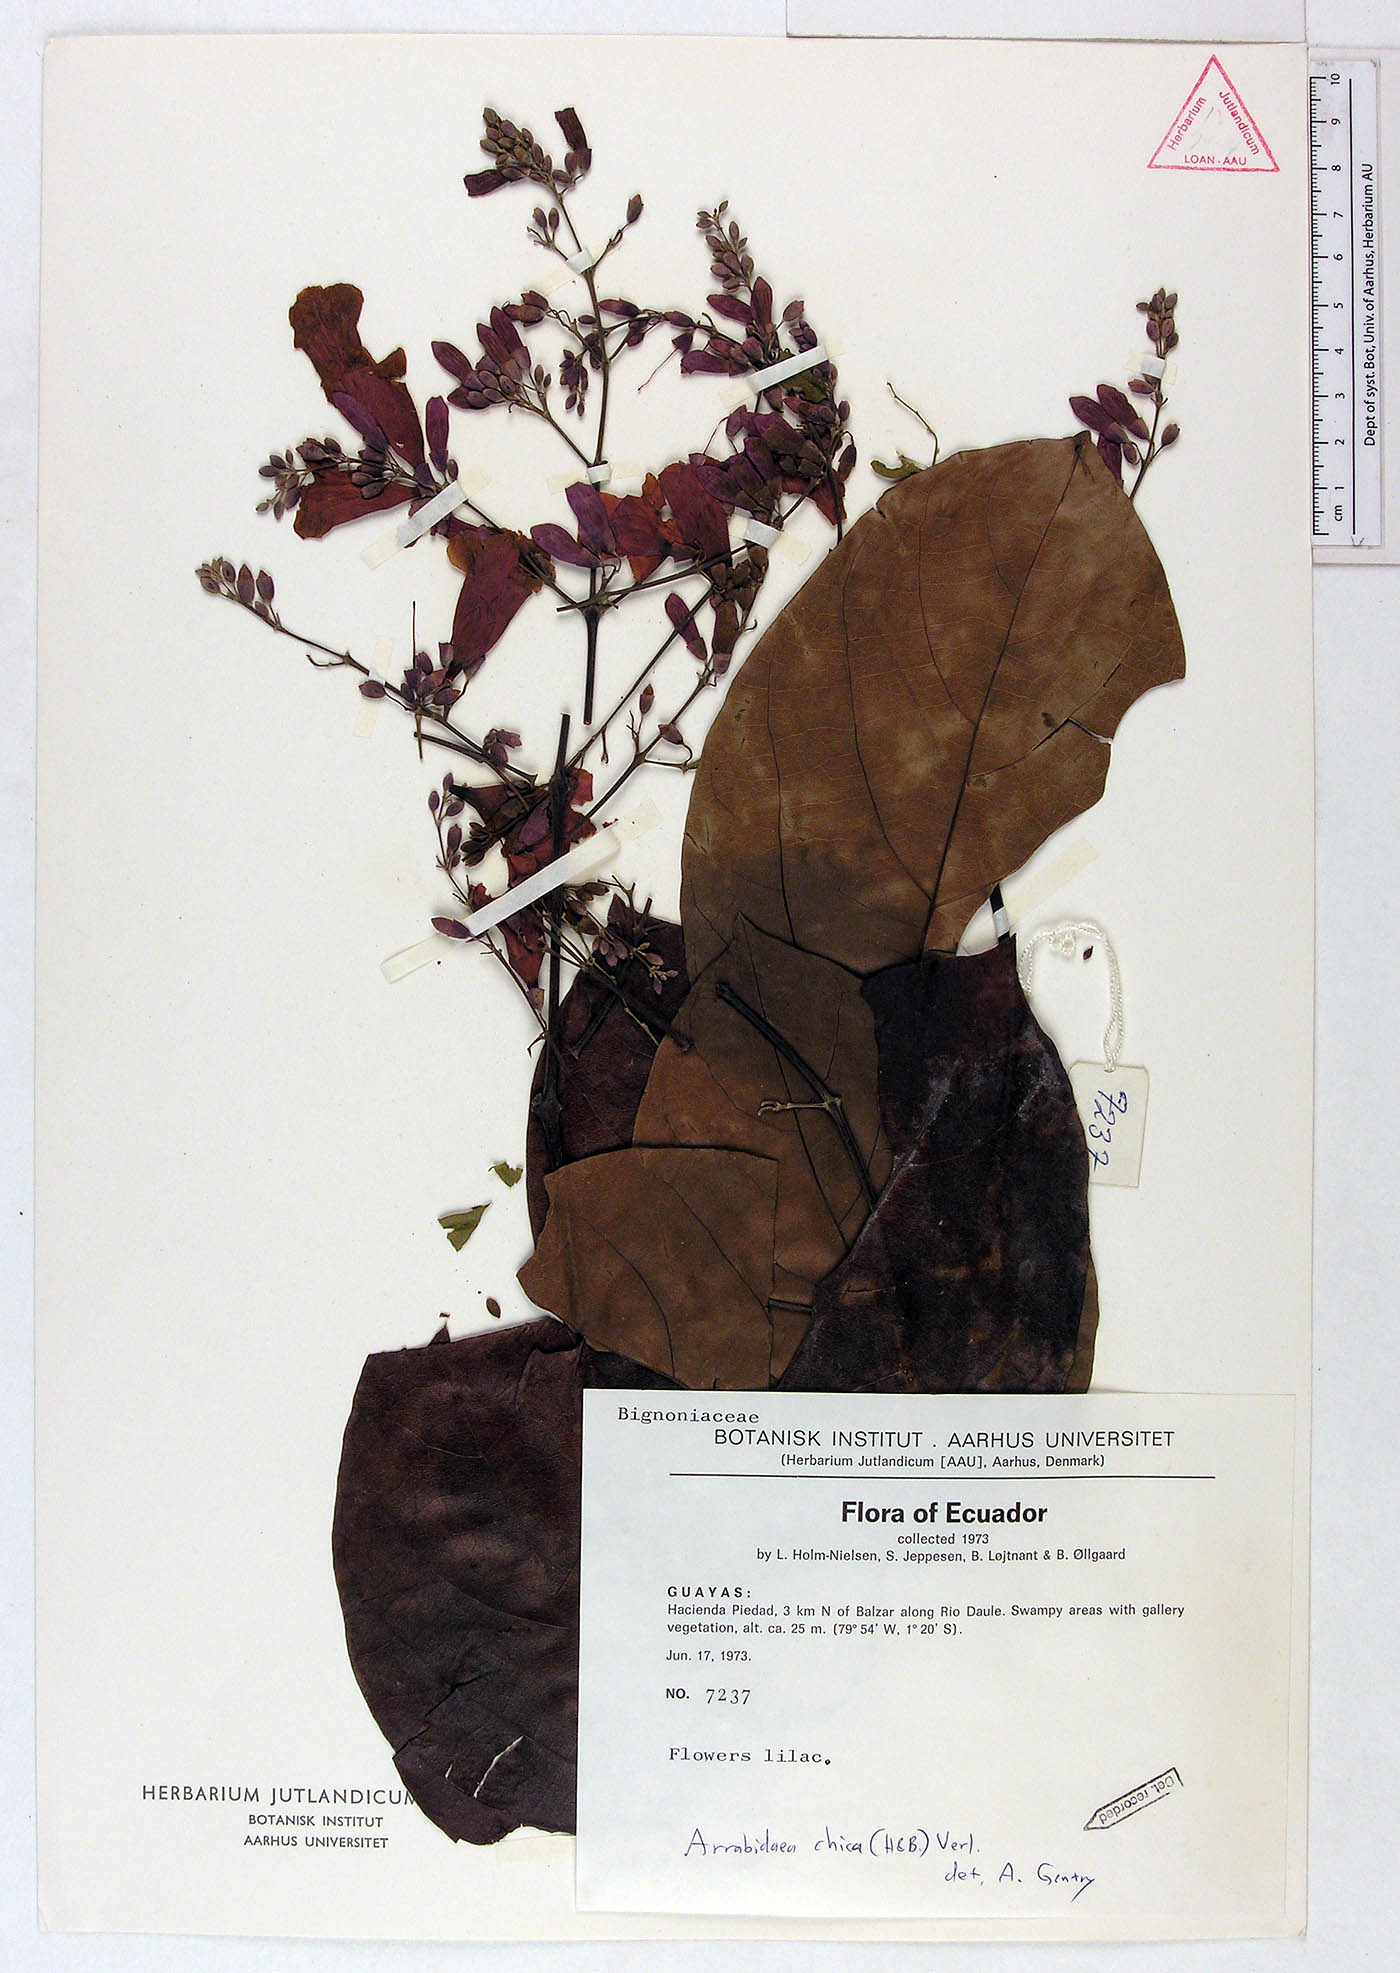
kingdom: Plantae
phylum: Tracheophyta
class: Magnoliopsida
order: Lamiales
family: Bignoniaceae
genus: Fridericia
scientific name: Fridericia chica
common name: Cricketvine
